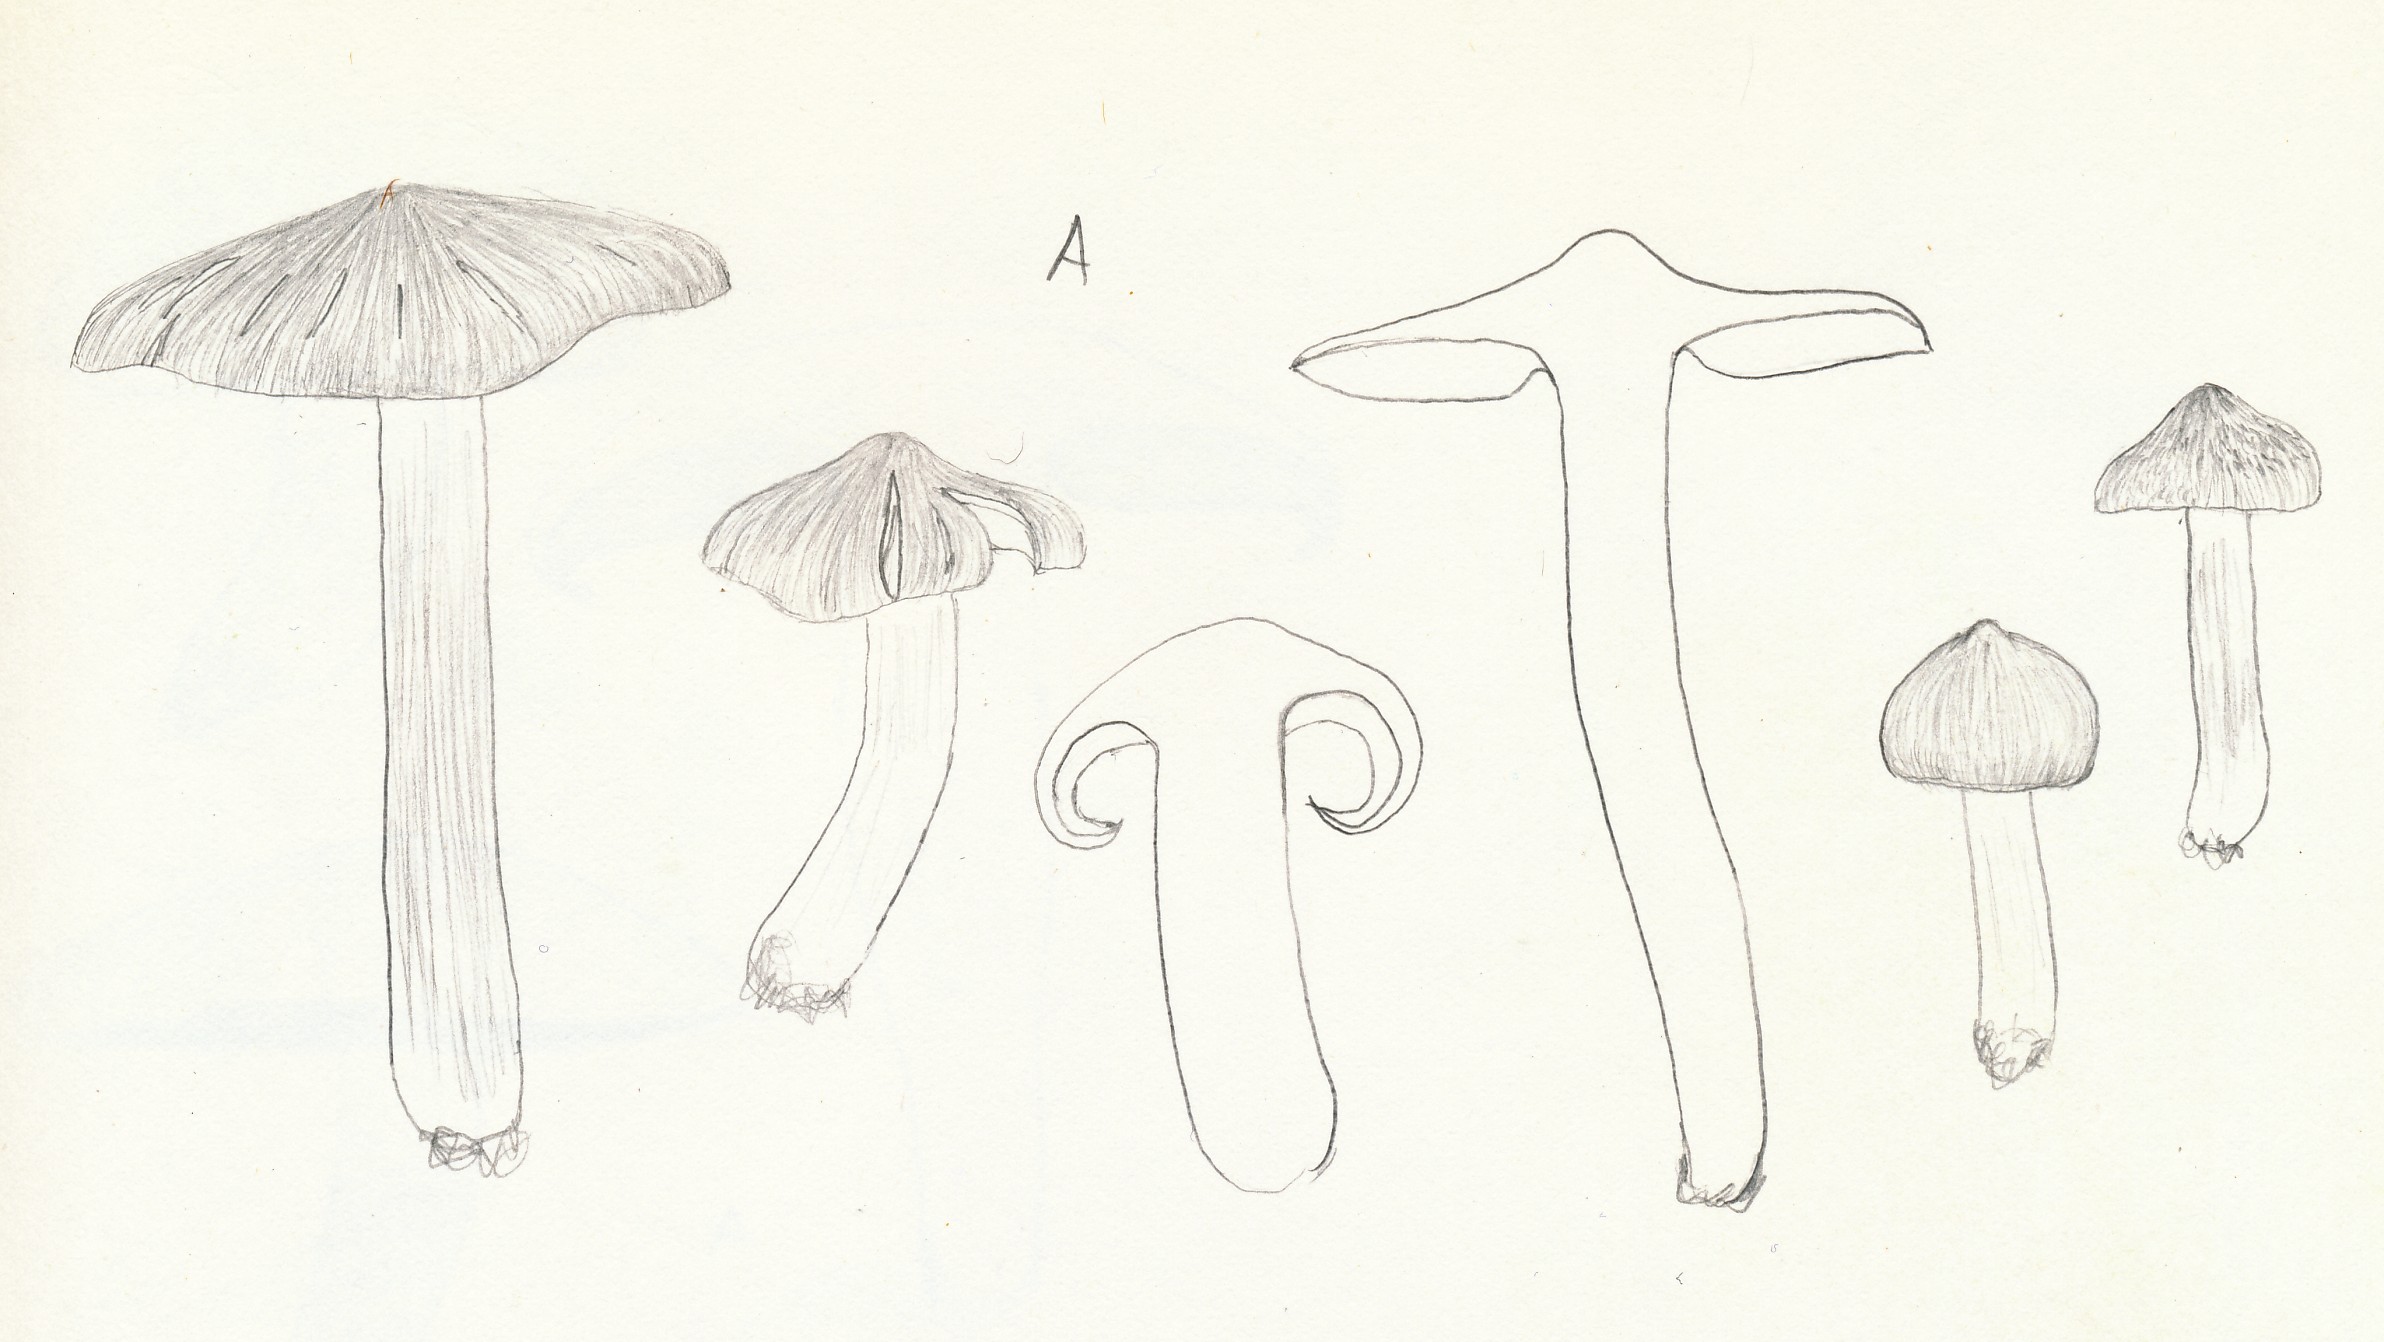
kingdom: Fungi
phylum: Basidiomycota
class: Agaricomycetes
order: Agaricales
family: Tricholomataceae
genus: Tricholoma
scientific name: Tricholoma argyraceum
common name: slør-ridderhat
